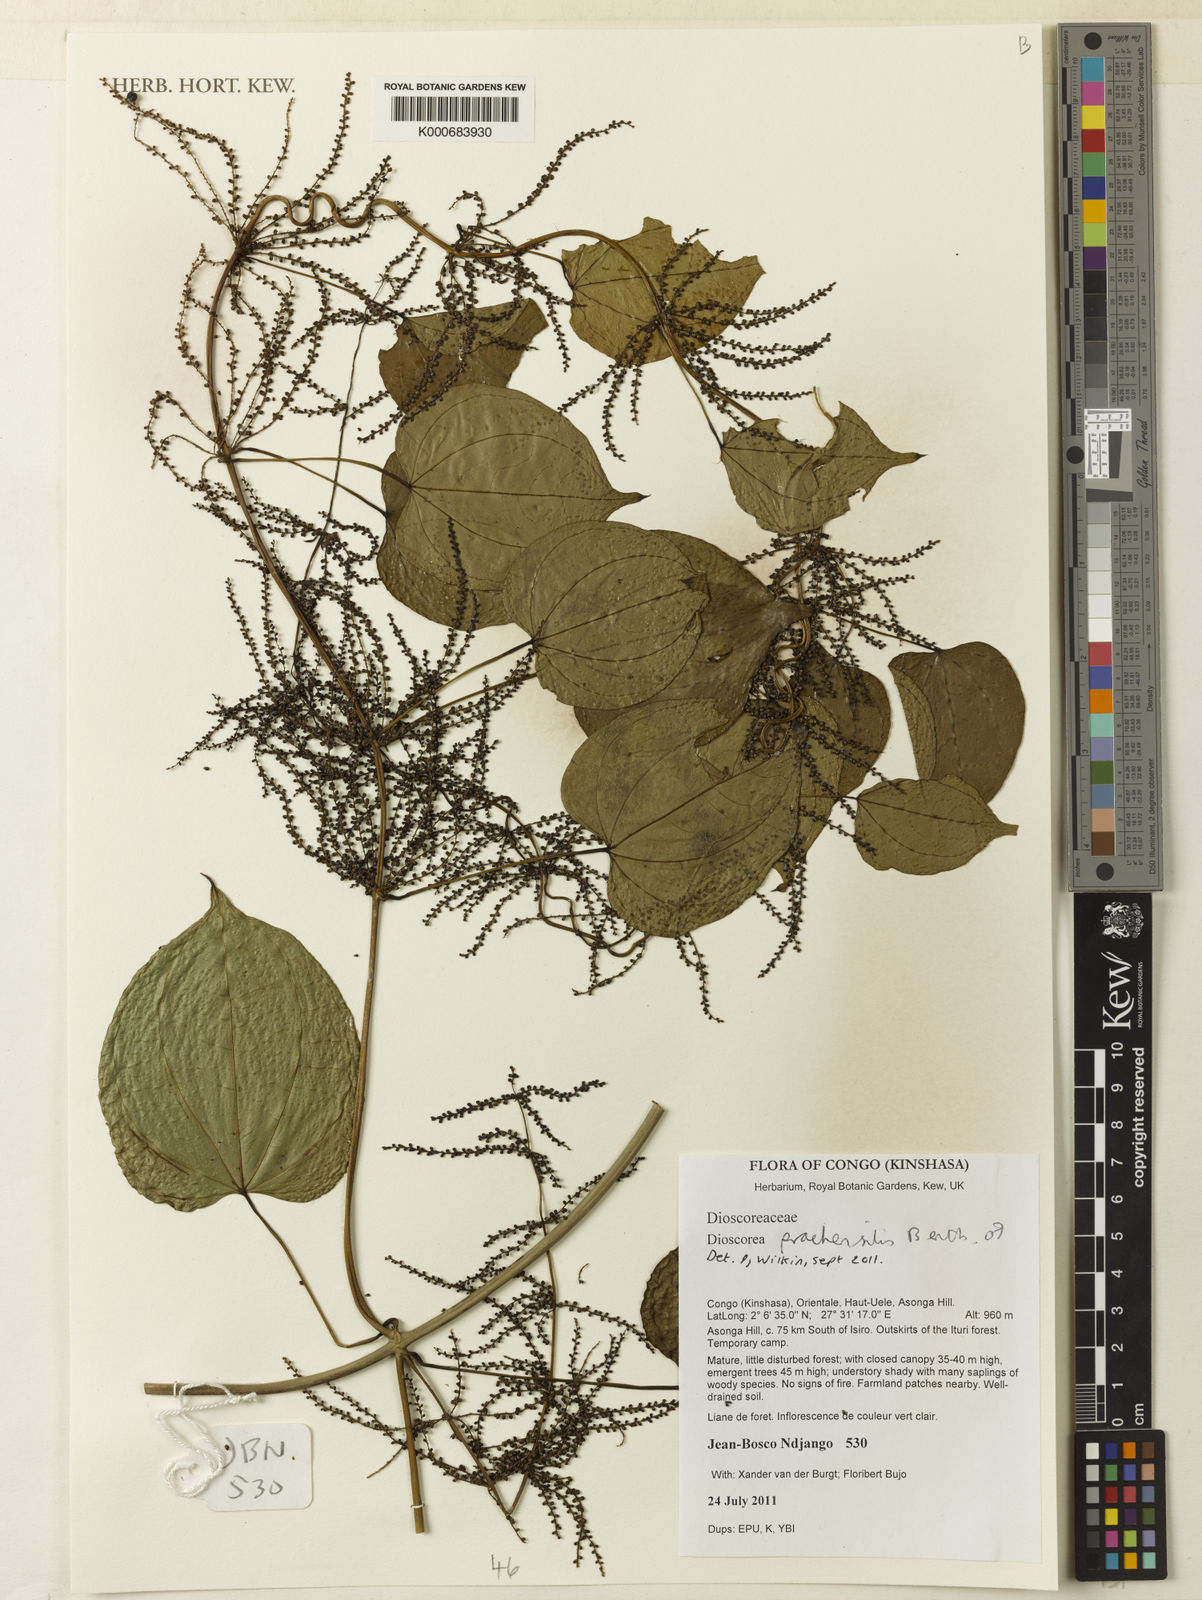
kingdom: Plantae
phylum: Tracheophyta
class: Liliopsida
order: Dioscoreales
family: Dioscoreaceae
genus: Dioscorea
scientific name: Dioscorea praehensilis
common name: Bush yam
